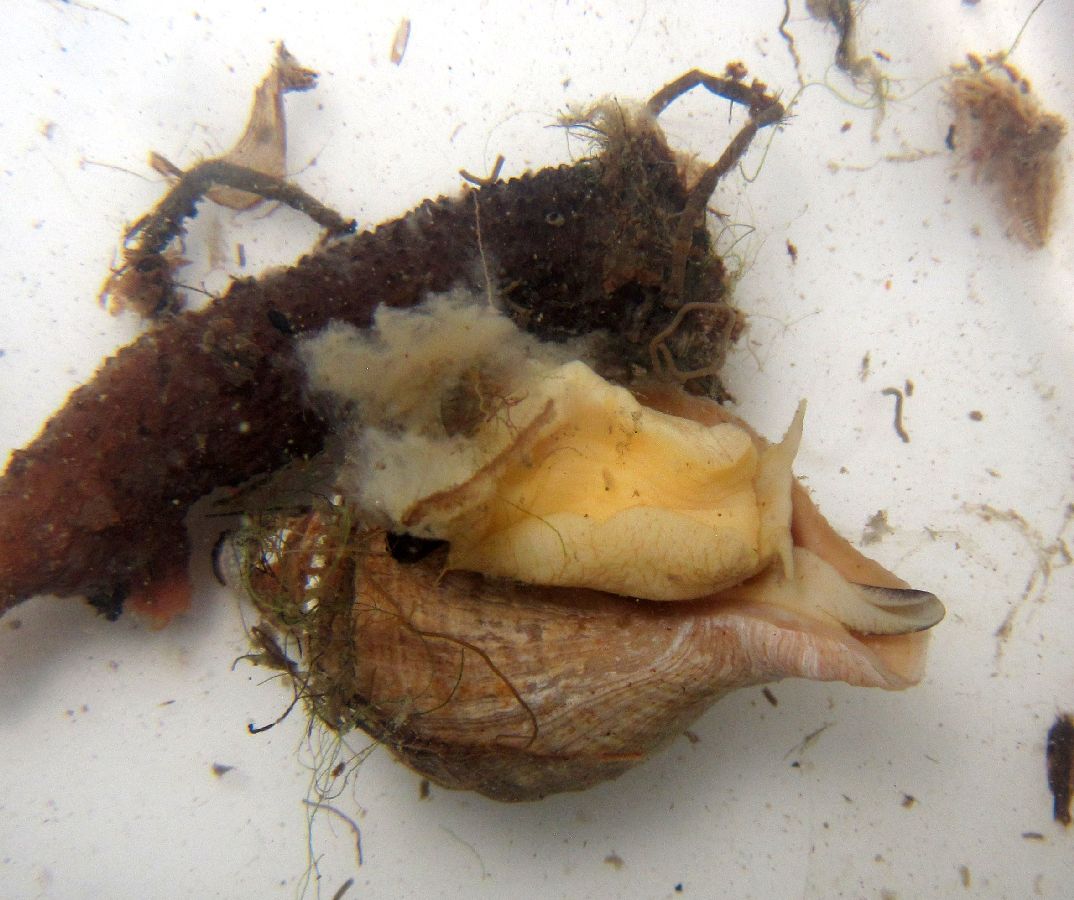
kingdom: Animalia
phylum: Mollusca
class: Gastropoda
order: Neogastropoda
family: Buccinidae
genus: Neptunea
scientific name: Neptunea despecta
